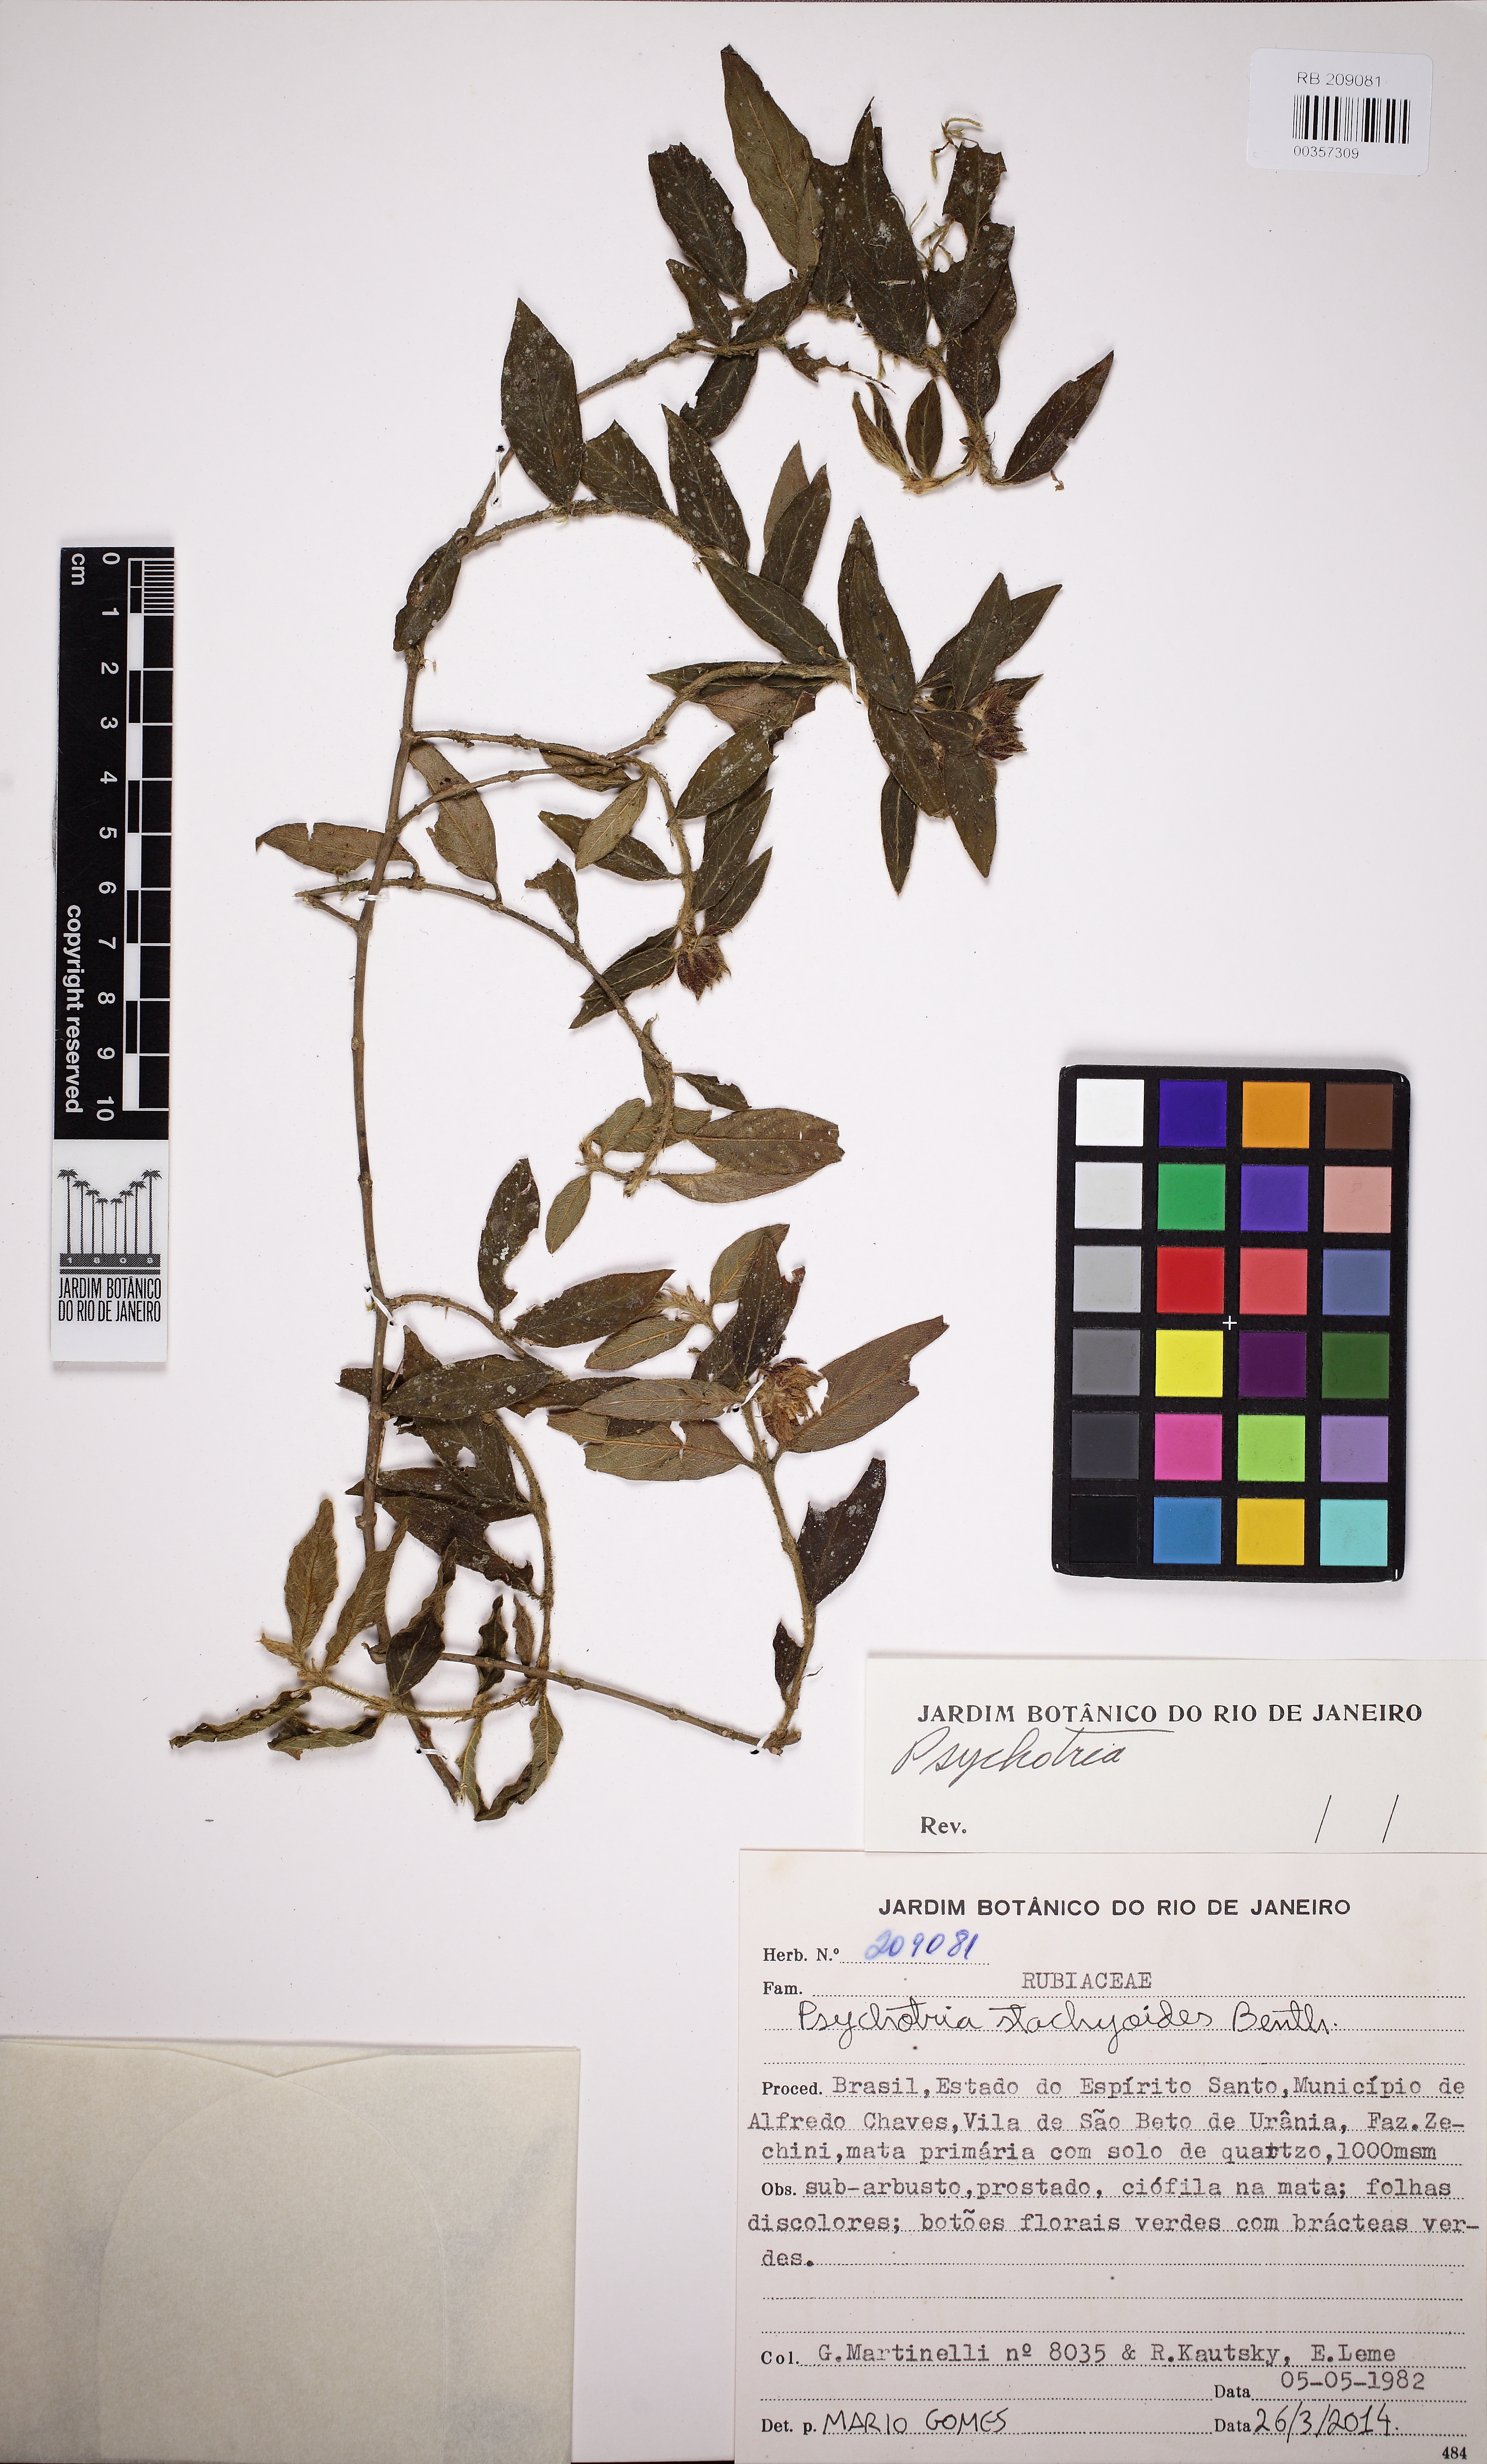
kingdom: Plantae
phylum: Tracheophyta
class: Magnoliopsida
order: Gentianales
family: Rubiaceae
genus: Psychotria
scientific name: Psychotria stachyoides
